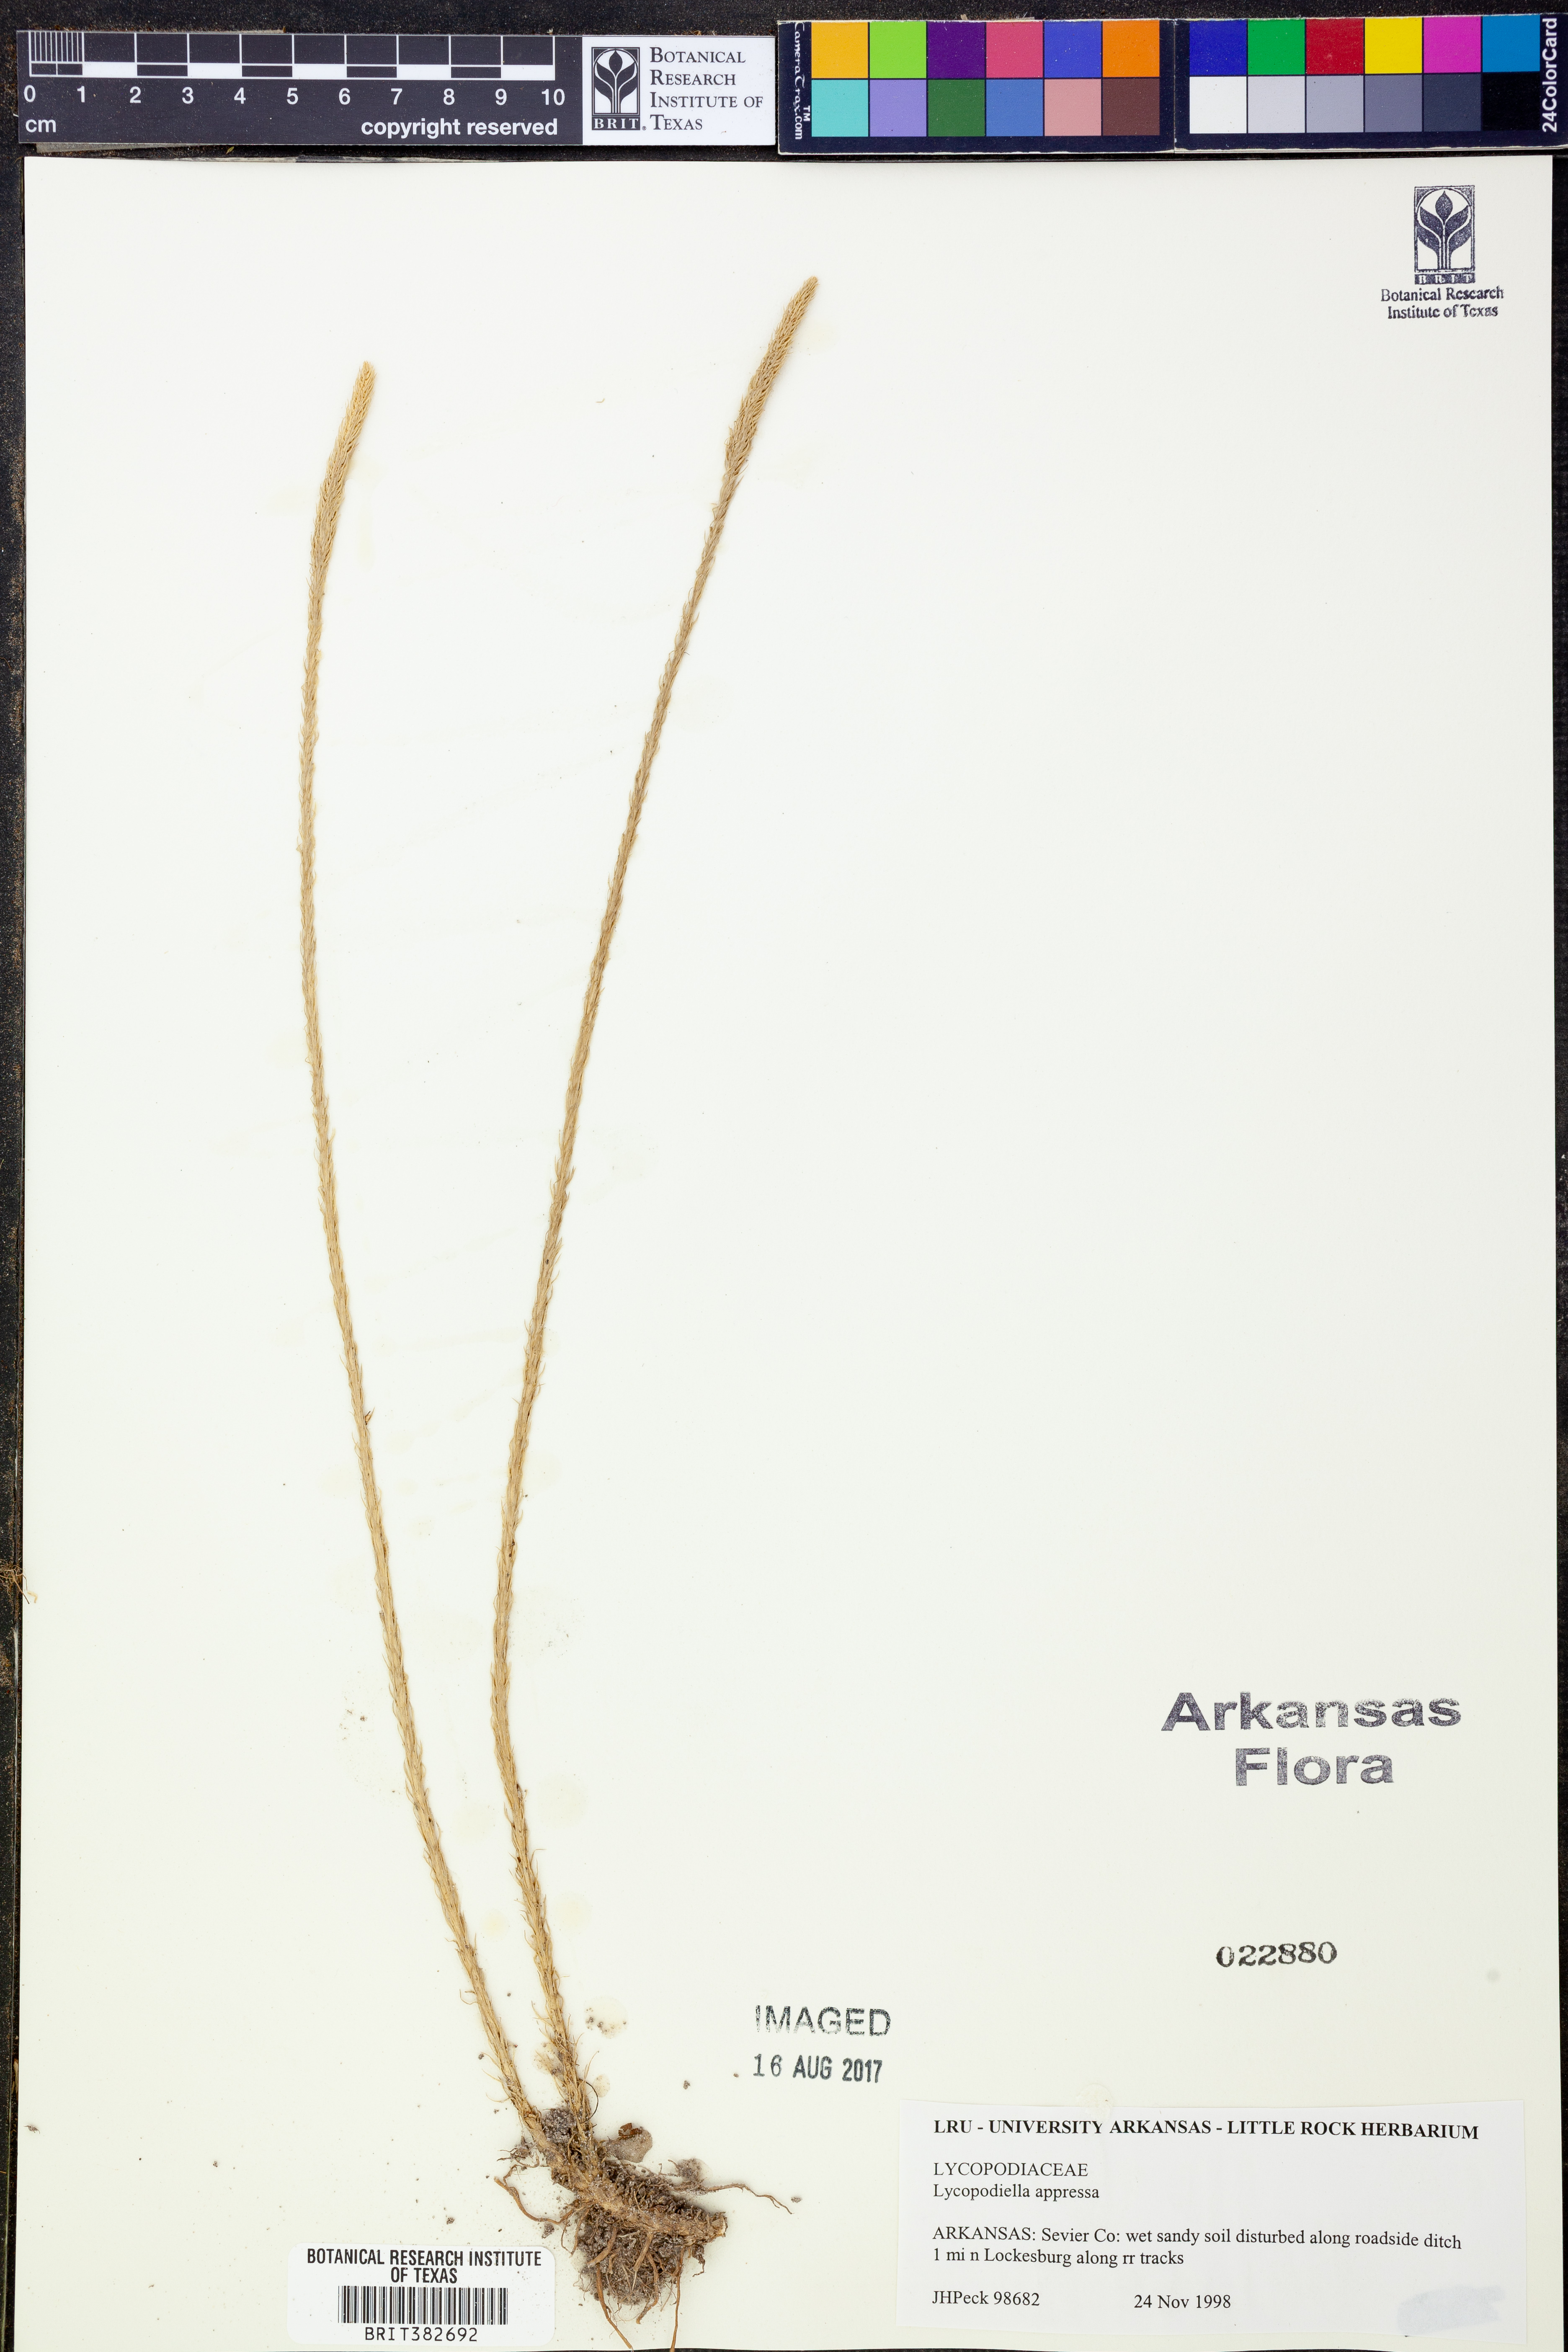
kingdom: Plantae
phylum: Tracheophyta
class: Lycopodiopsida
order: Lycopodiales
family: Lycopodiaceae
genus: Lycopodiella
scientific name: Lycopodiella appressa
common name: Appressed bog clubmoss
